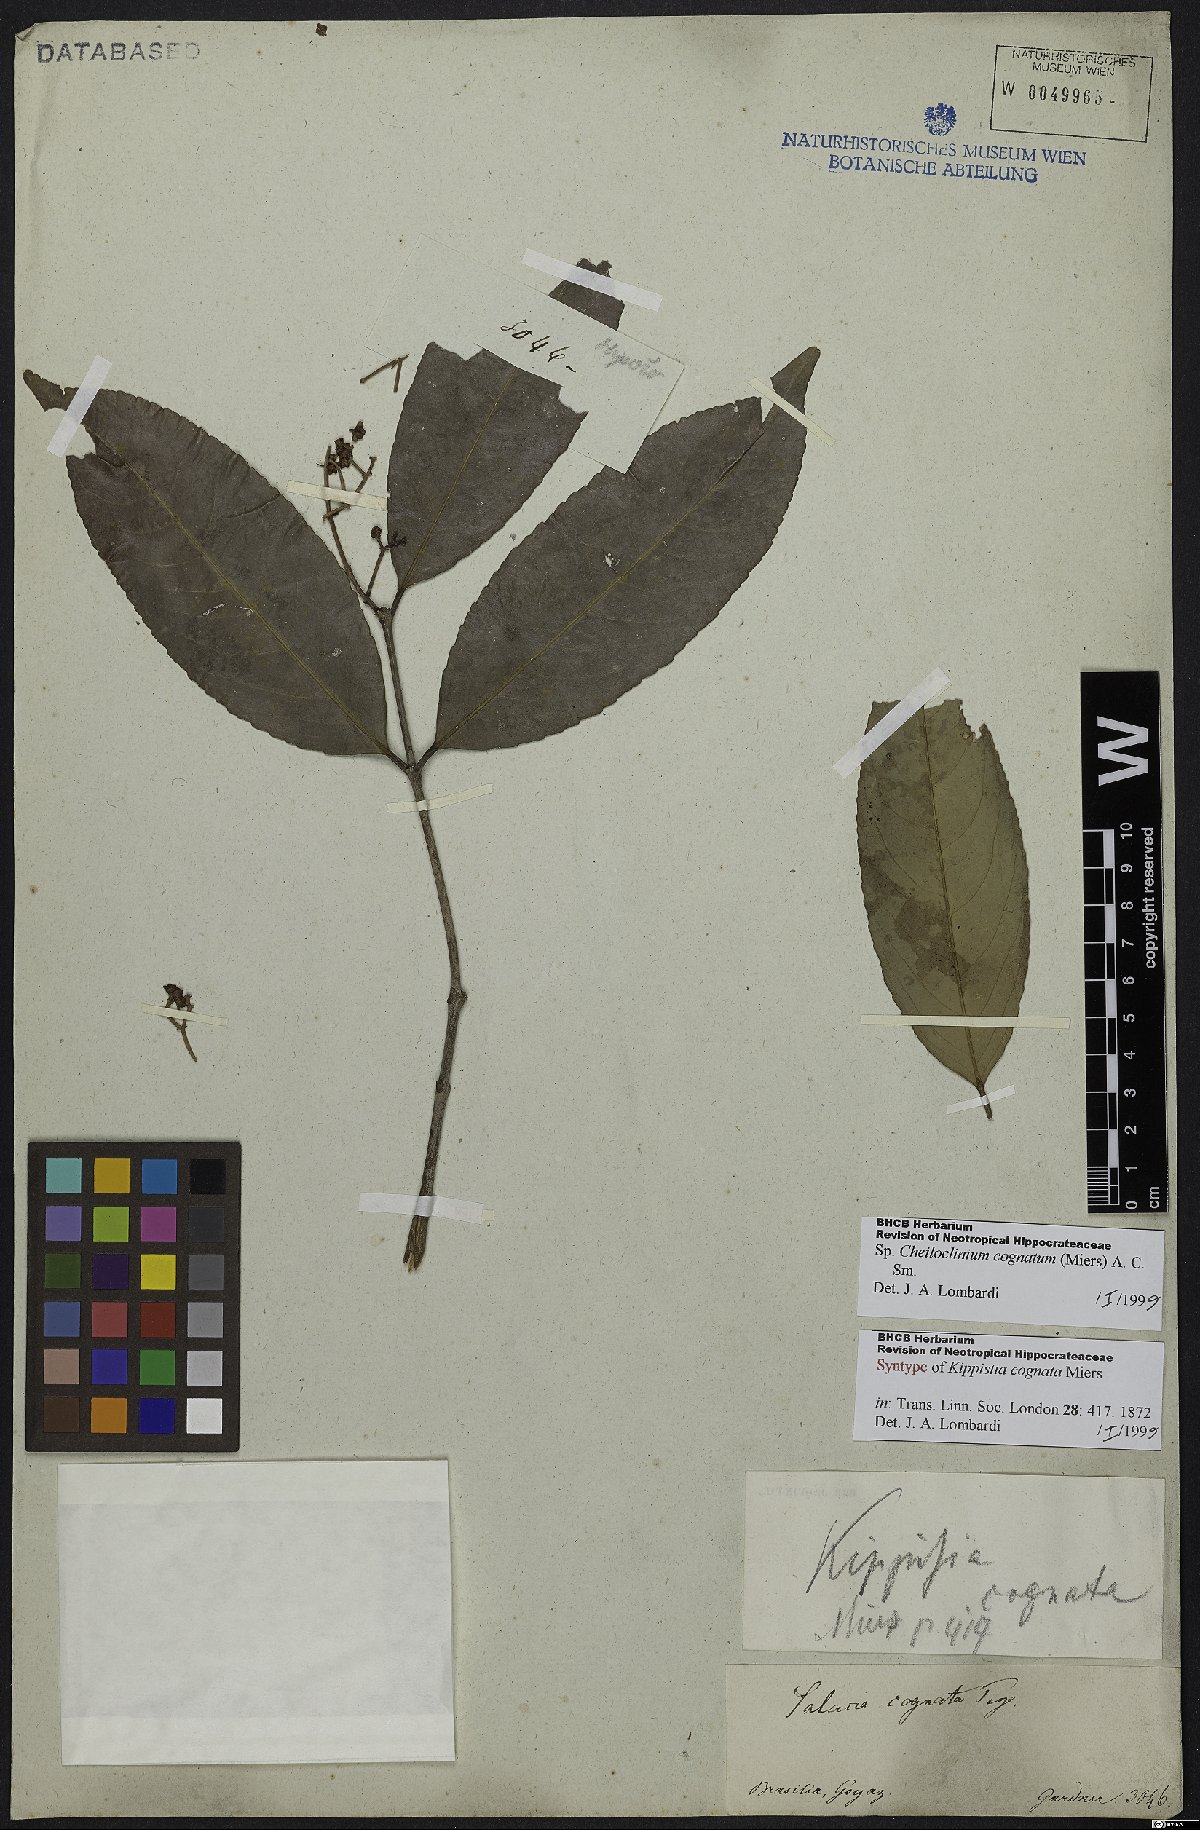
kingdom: Plantae
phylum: Tracheophyta
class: Magnoliopsida
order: Celastrales
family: Celastraceae
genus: Cheiloclinium
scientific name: Cheiloclinium cognatum
